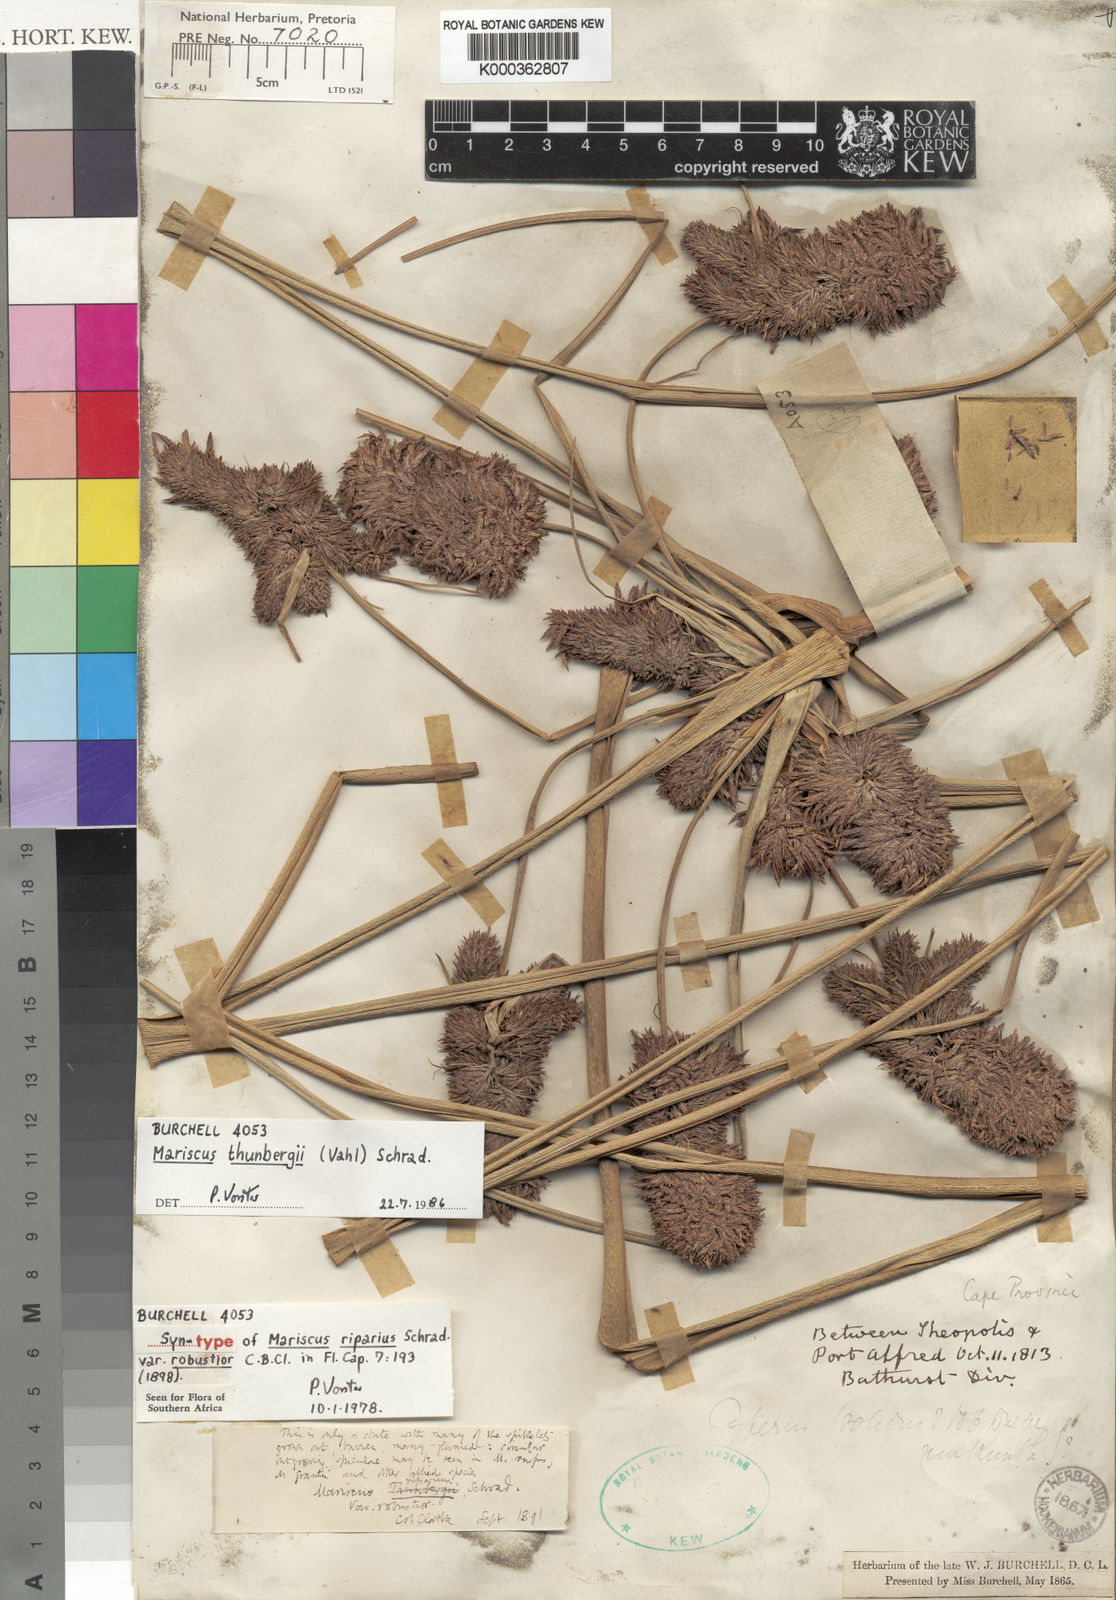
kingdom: Plantae
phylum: Tracheophyta
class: Liliopsida
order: Poales
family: Cyperaceae
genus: Cyperus
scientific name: Cyperus thunbergii
